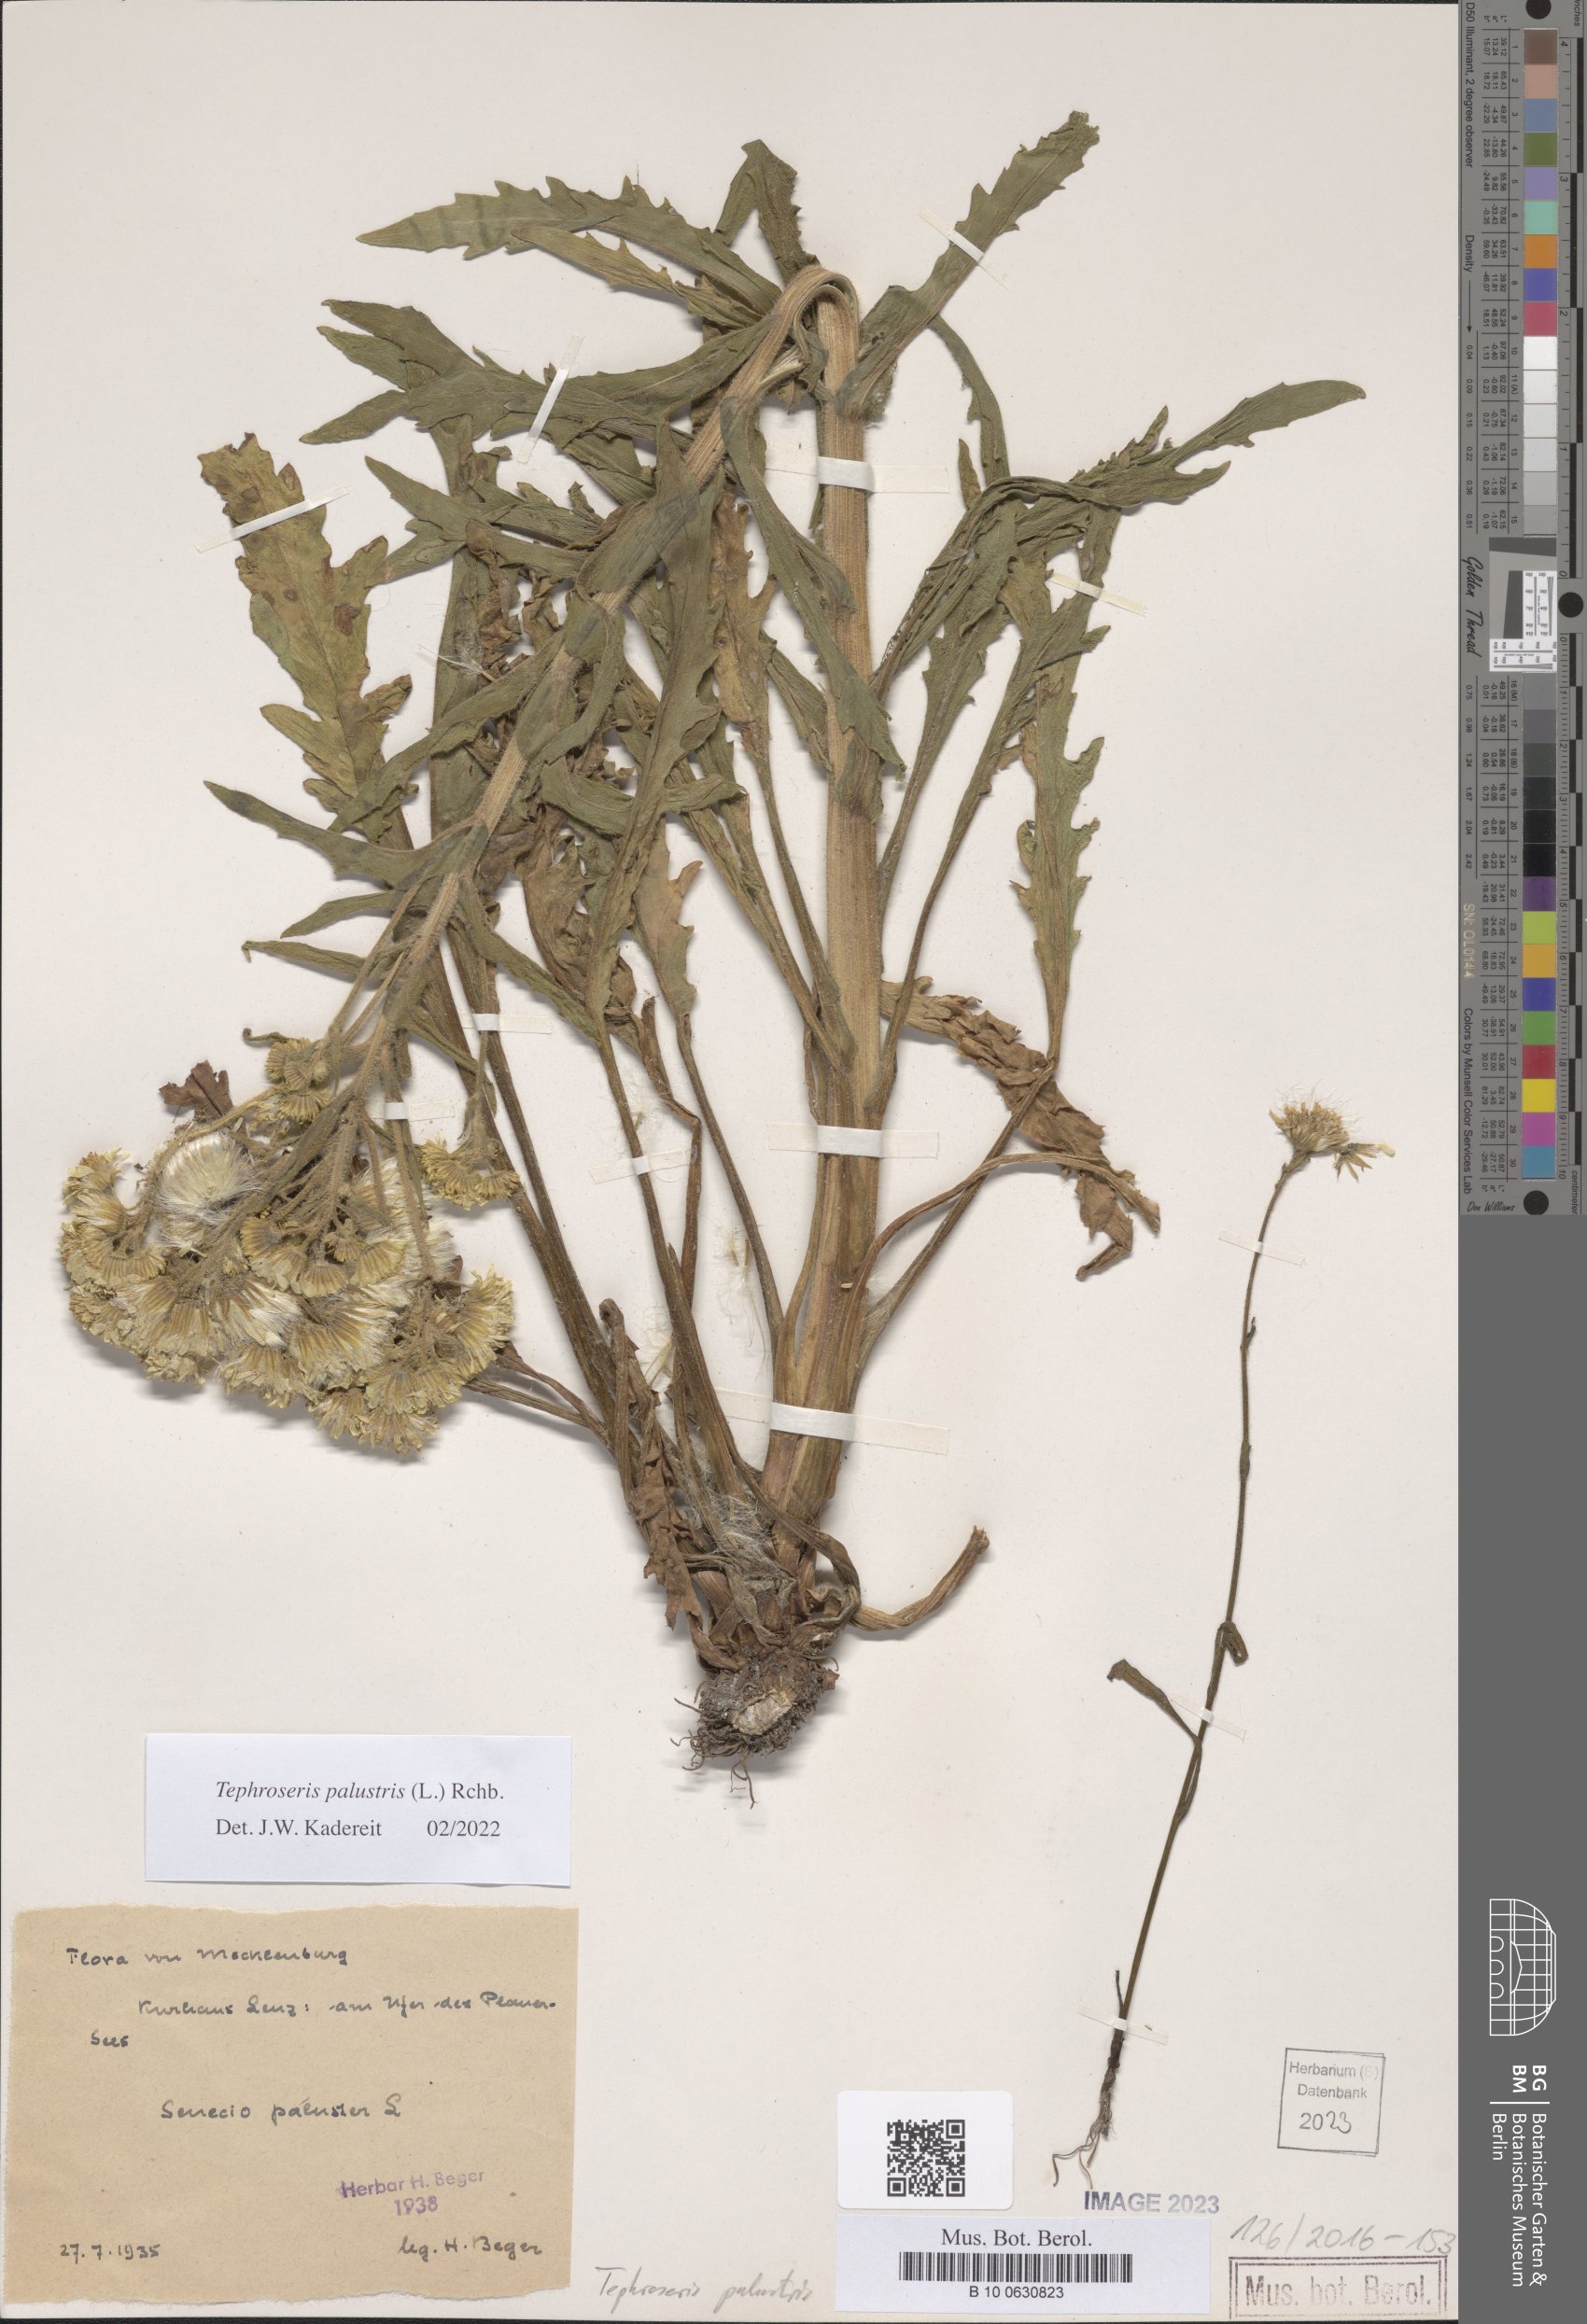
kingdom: Plantae
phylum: Tracheophyta
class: Magnoliopsida
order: Asterales
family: Asteraceae
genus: Tephroseris
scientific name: Tephroseris palustris
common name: Marsh fleawort
